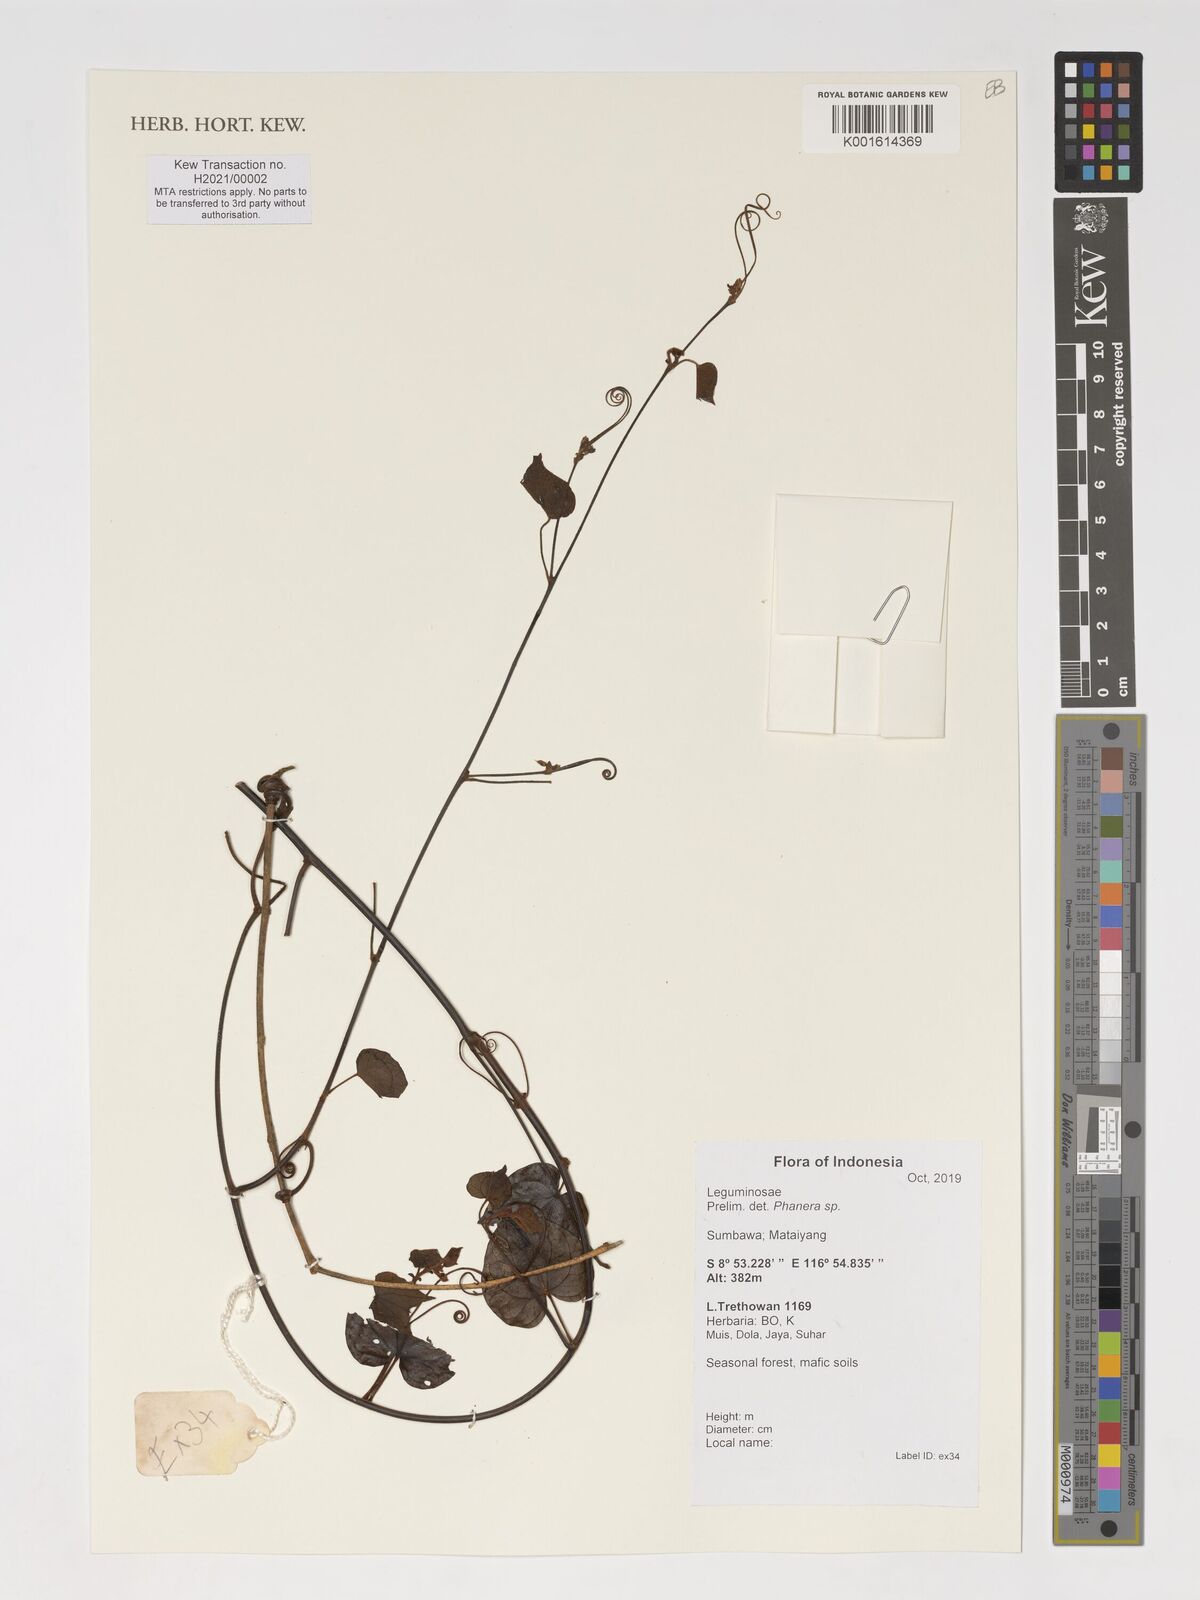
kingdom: Plantae
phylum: Tracheophyta
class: Magnoliopsida
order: Fabales
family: Fabaceae
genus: Phanera
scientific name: Phanera
